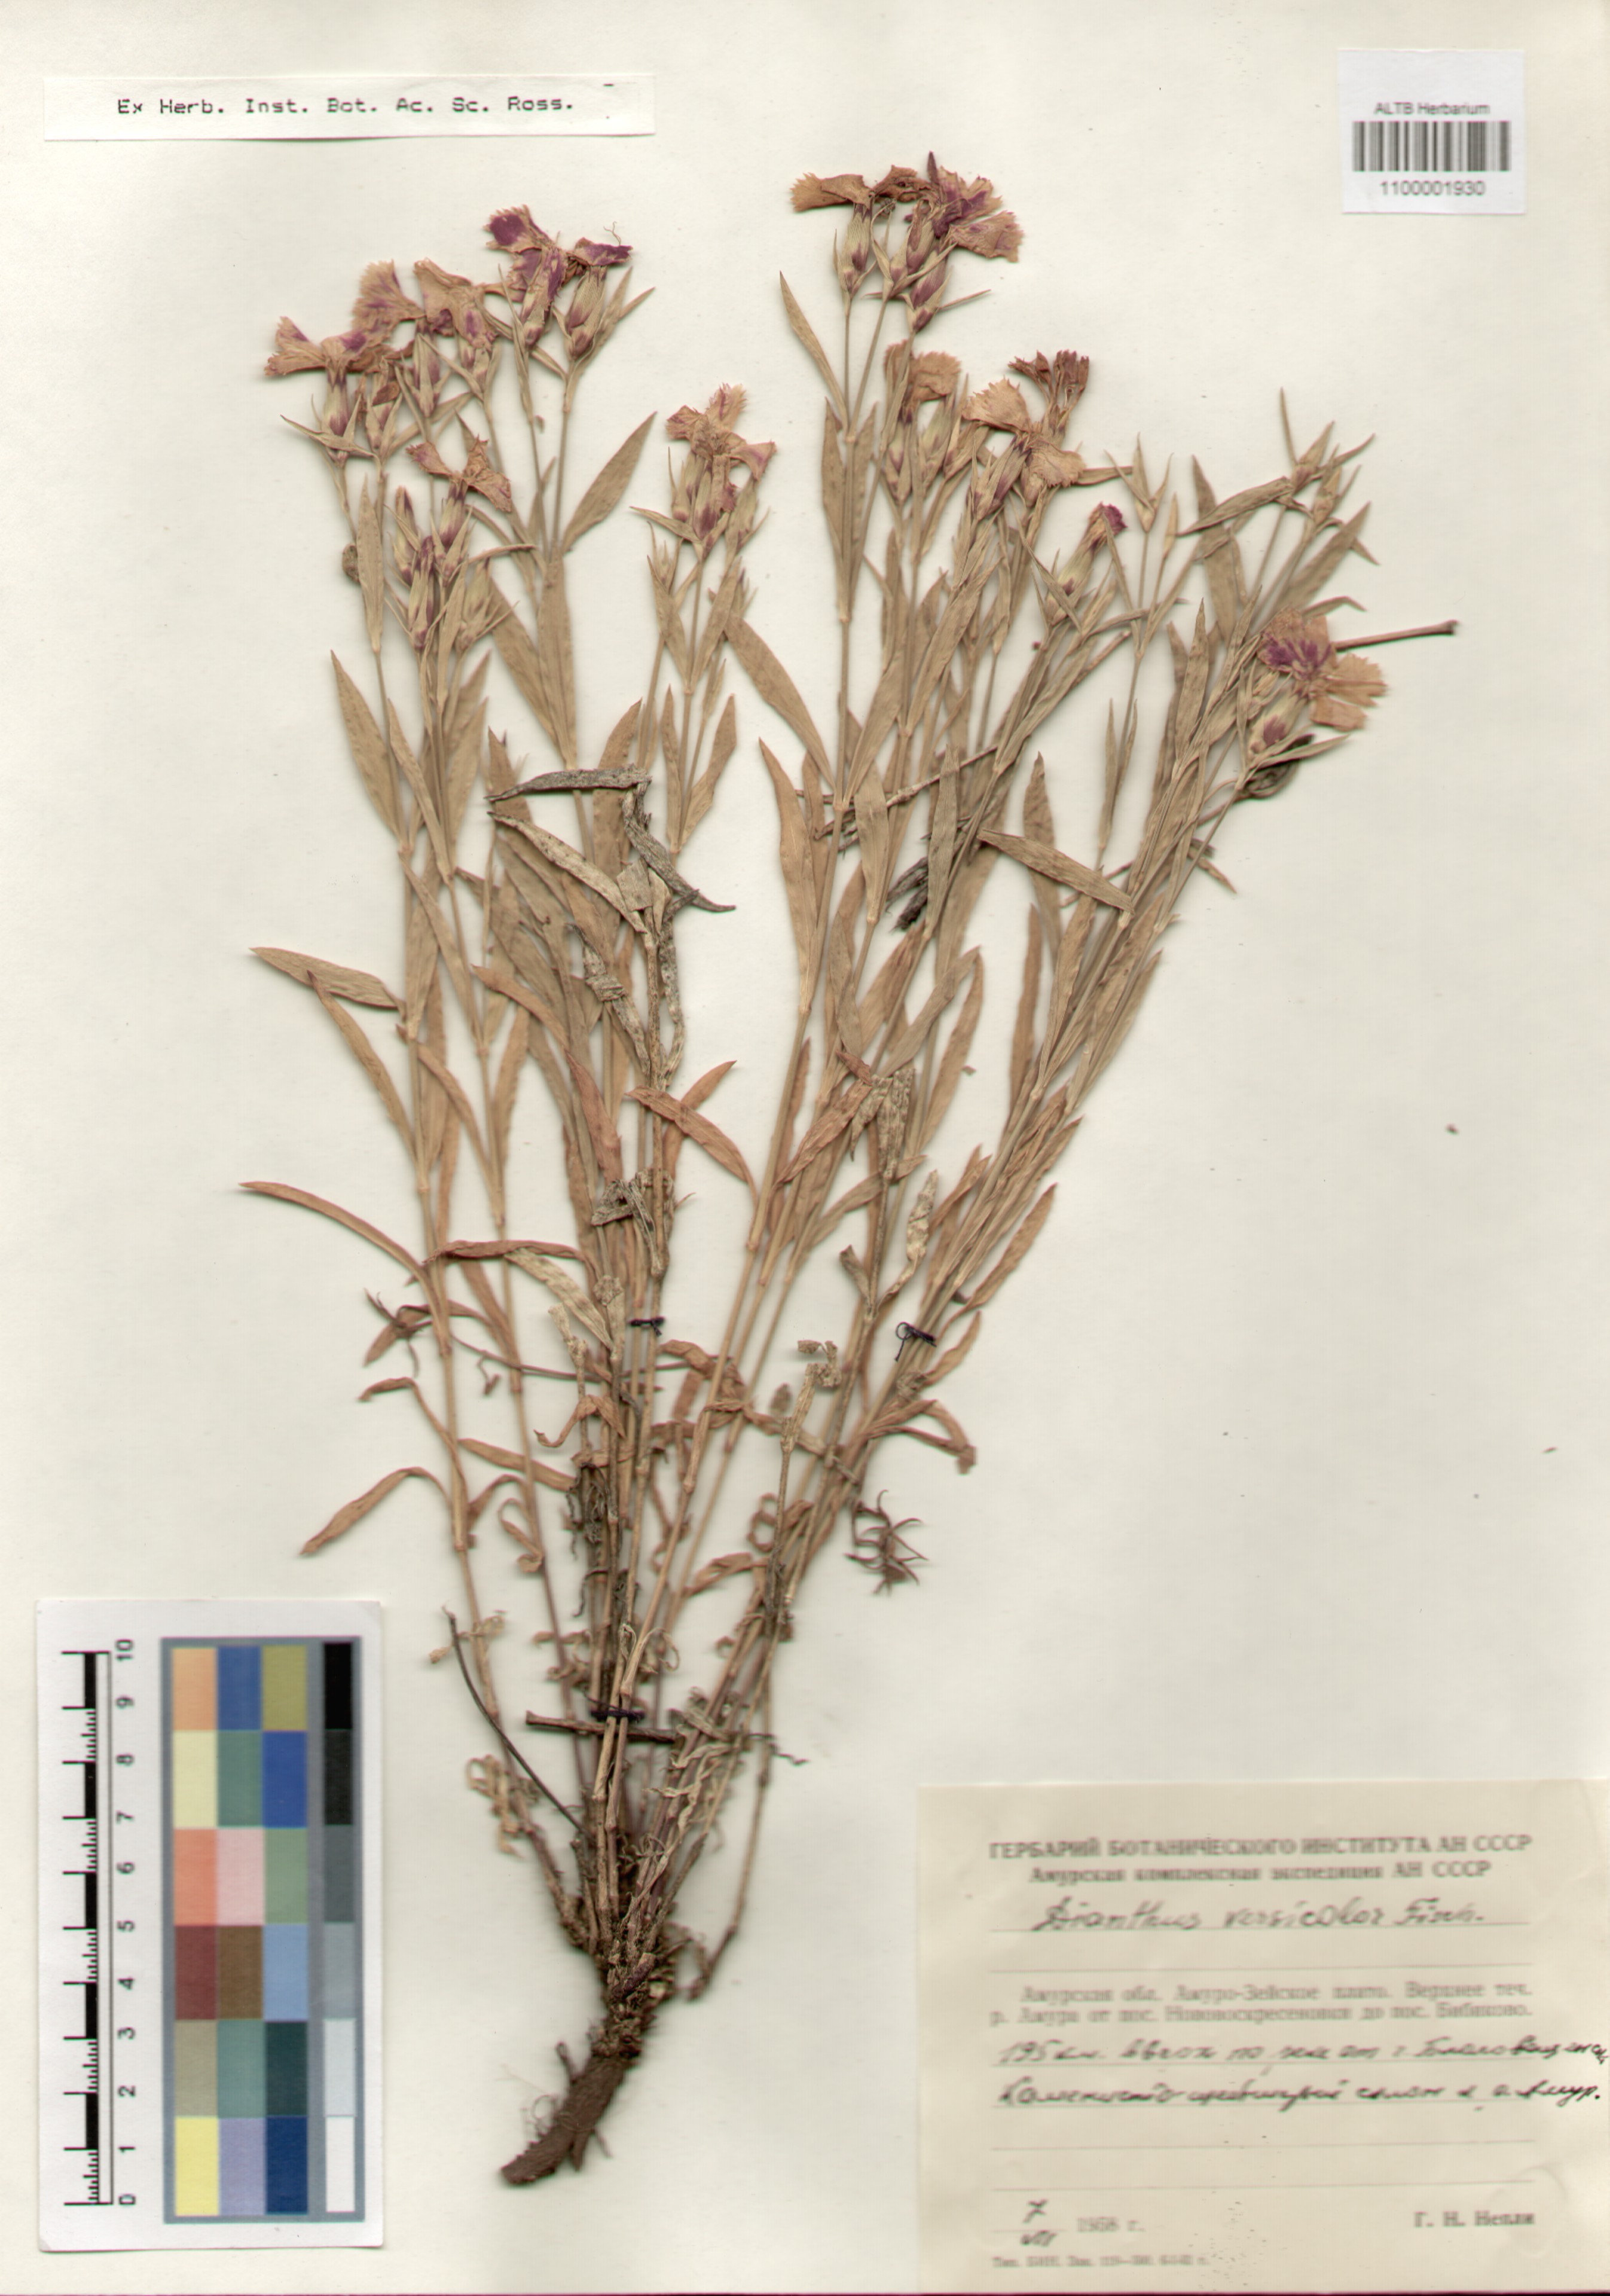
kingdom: Plantae
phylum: Tracheophyta
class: Magnoliopsida
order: Caryophyllales
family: Caryophyllaceae
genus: Dianthus
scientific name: Dianthus chinensis
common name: Rainbow pink
